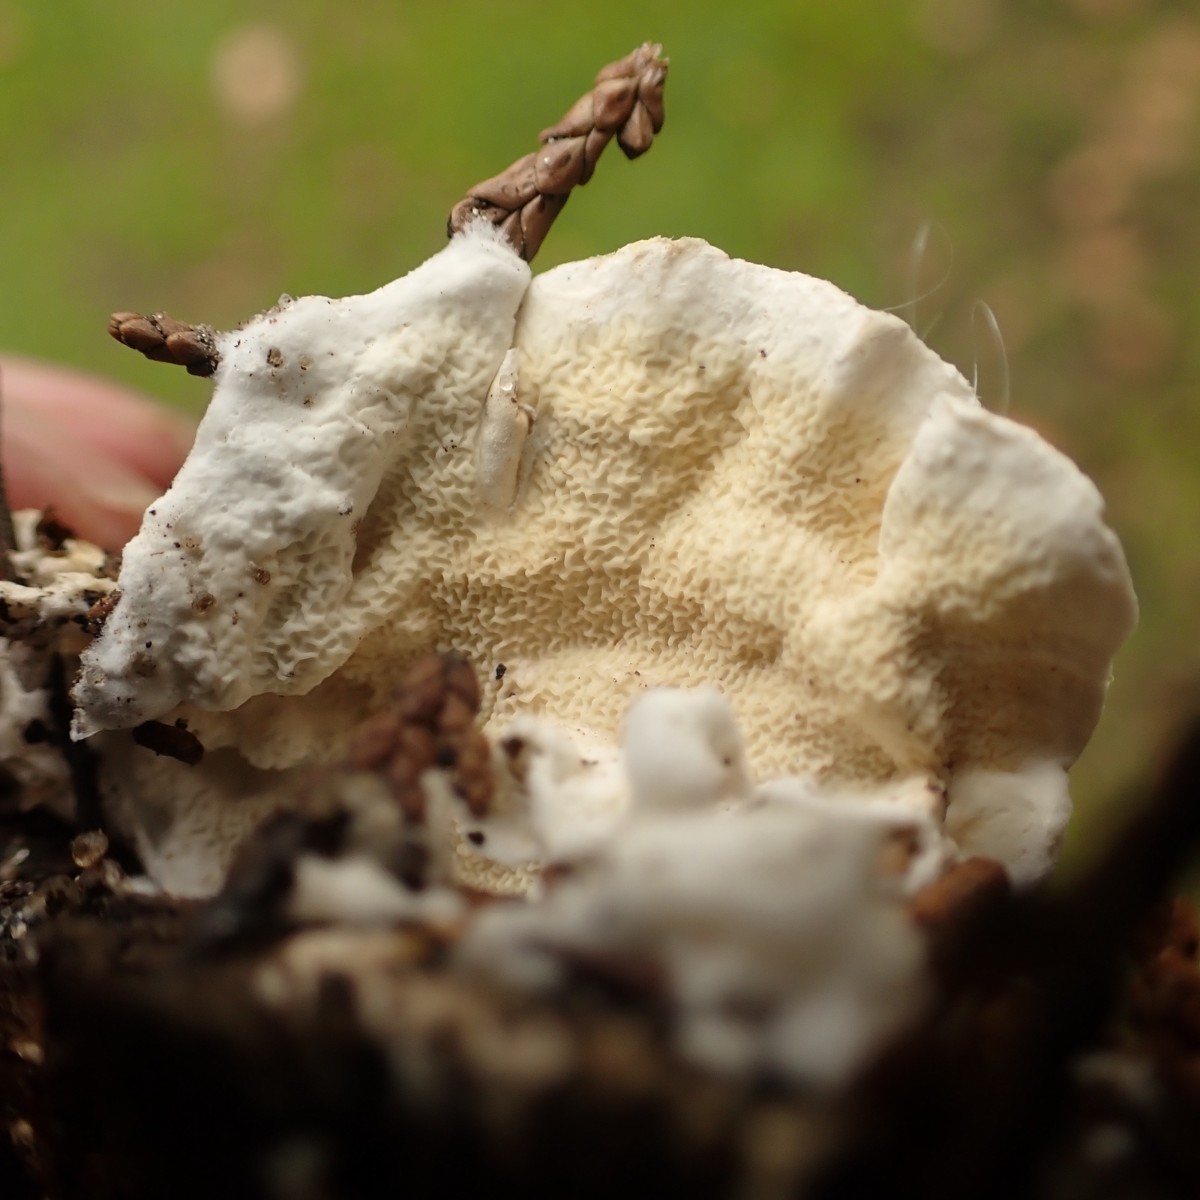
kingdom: Fungi
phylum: Basidiomycota
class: Agaricomycetes
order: Polyporales
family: Irpicaceae
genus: Byssomerulius
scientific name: Byssomerulius corium
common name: læder-åresvamp
